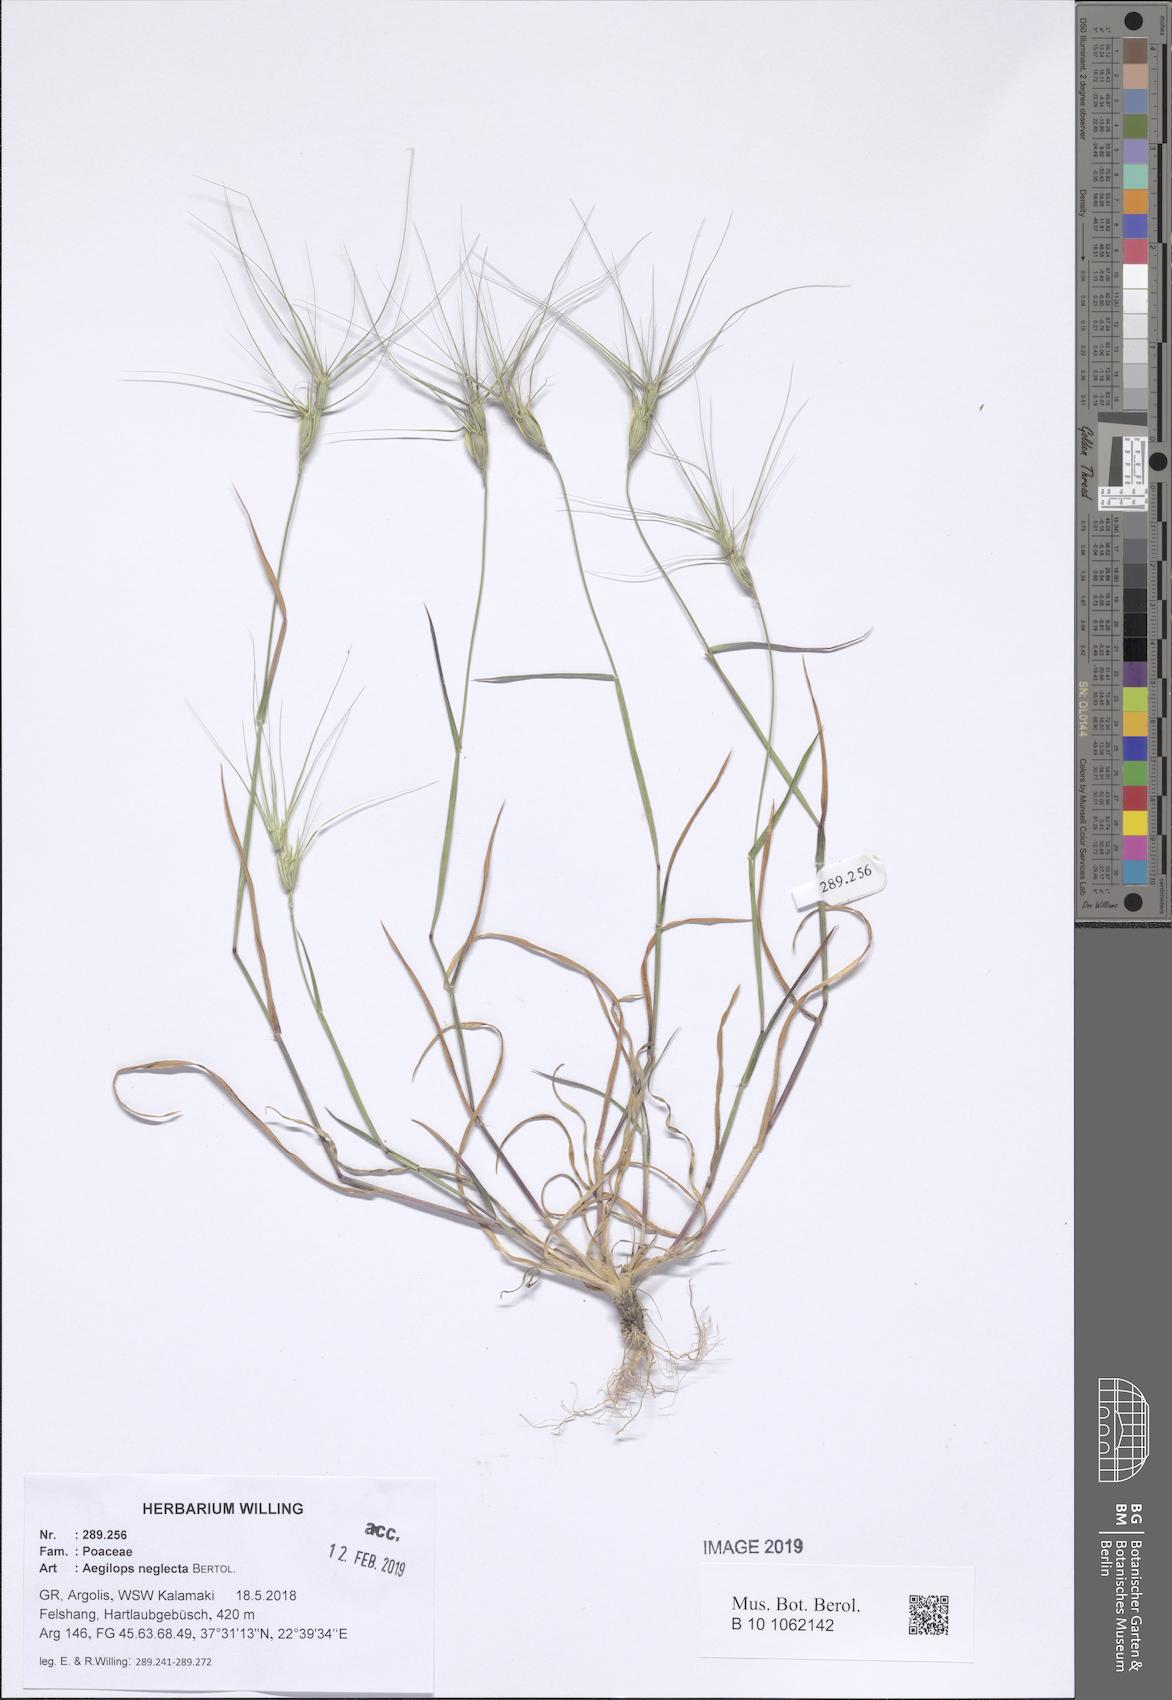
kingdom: Plantae
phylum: Tracheophyta
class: Liliopsida
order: Poales
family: Poaceae
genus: Aegilops
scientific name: Aegilops neglecta
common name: Three-awn goat grass
